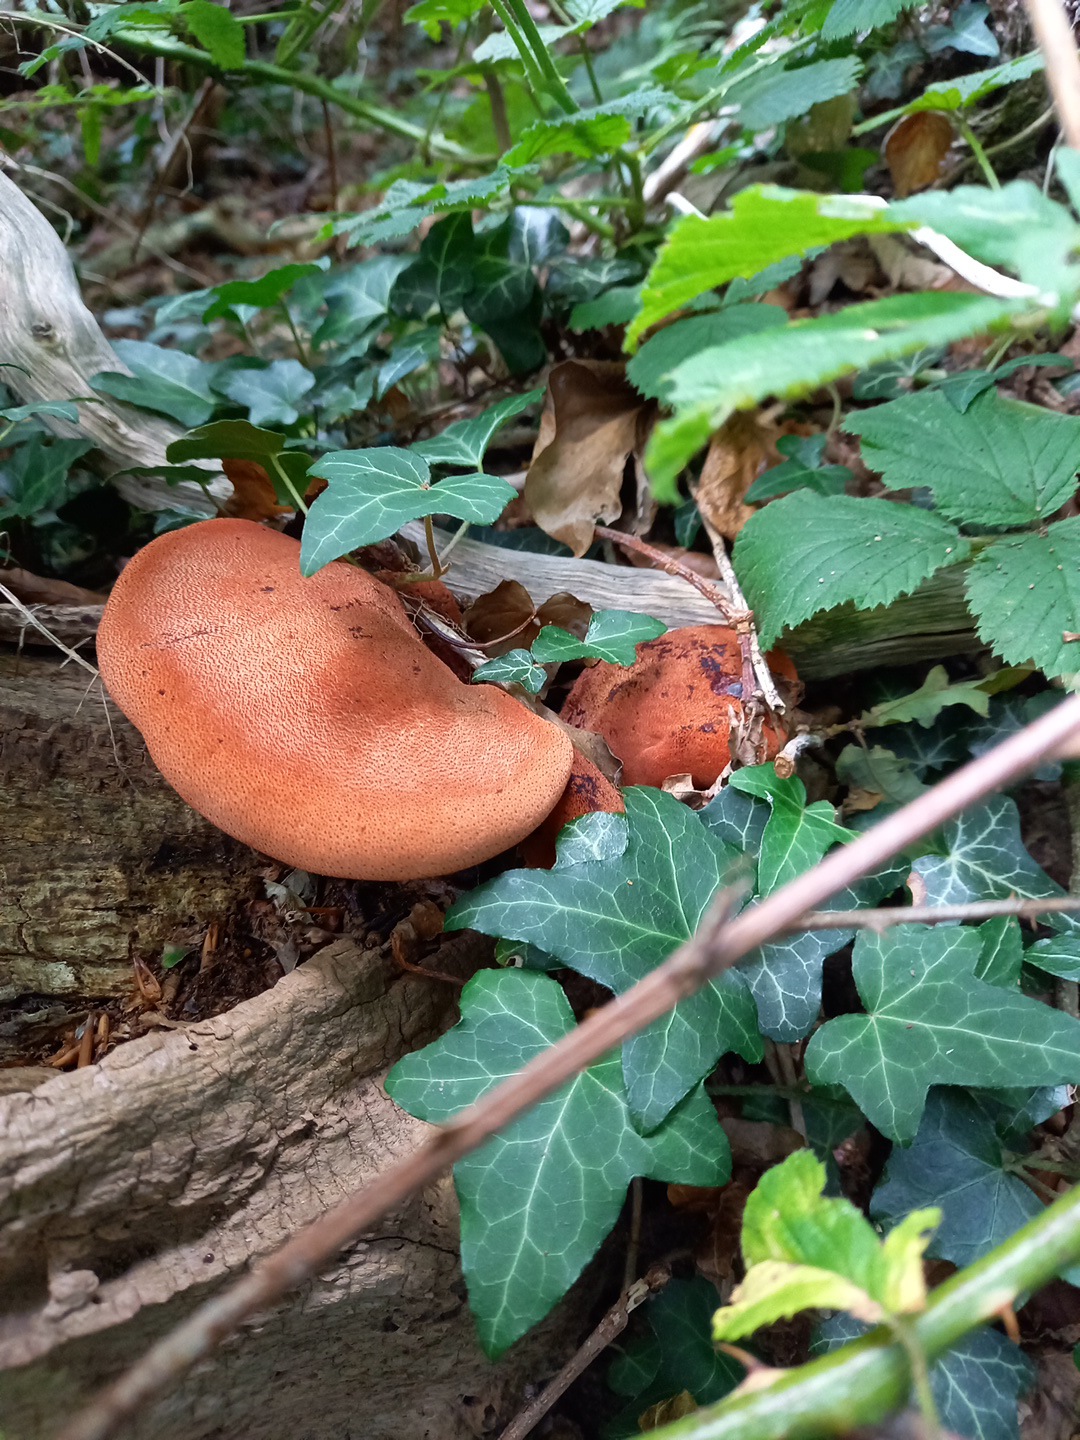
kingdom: Fungi
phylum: Basidiomycota
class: Agaricomycetes
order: Agaricales
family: Fistulinaceae
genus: Fistulina
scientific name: Fistulina hepatica
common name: oksetunge
